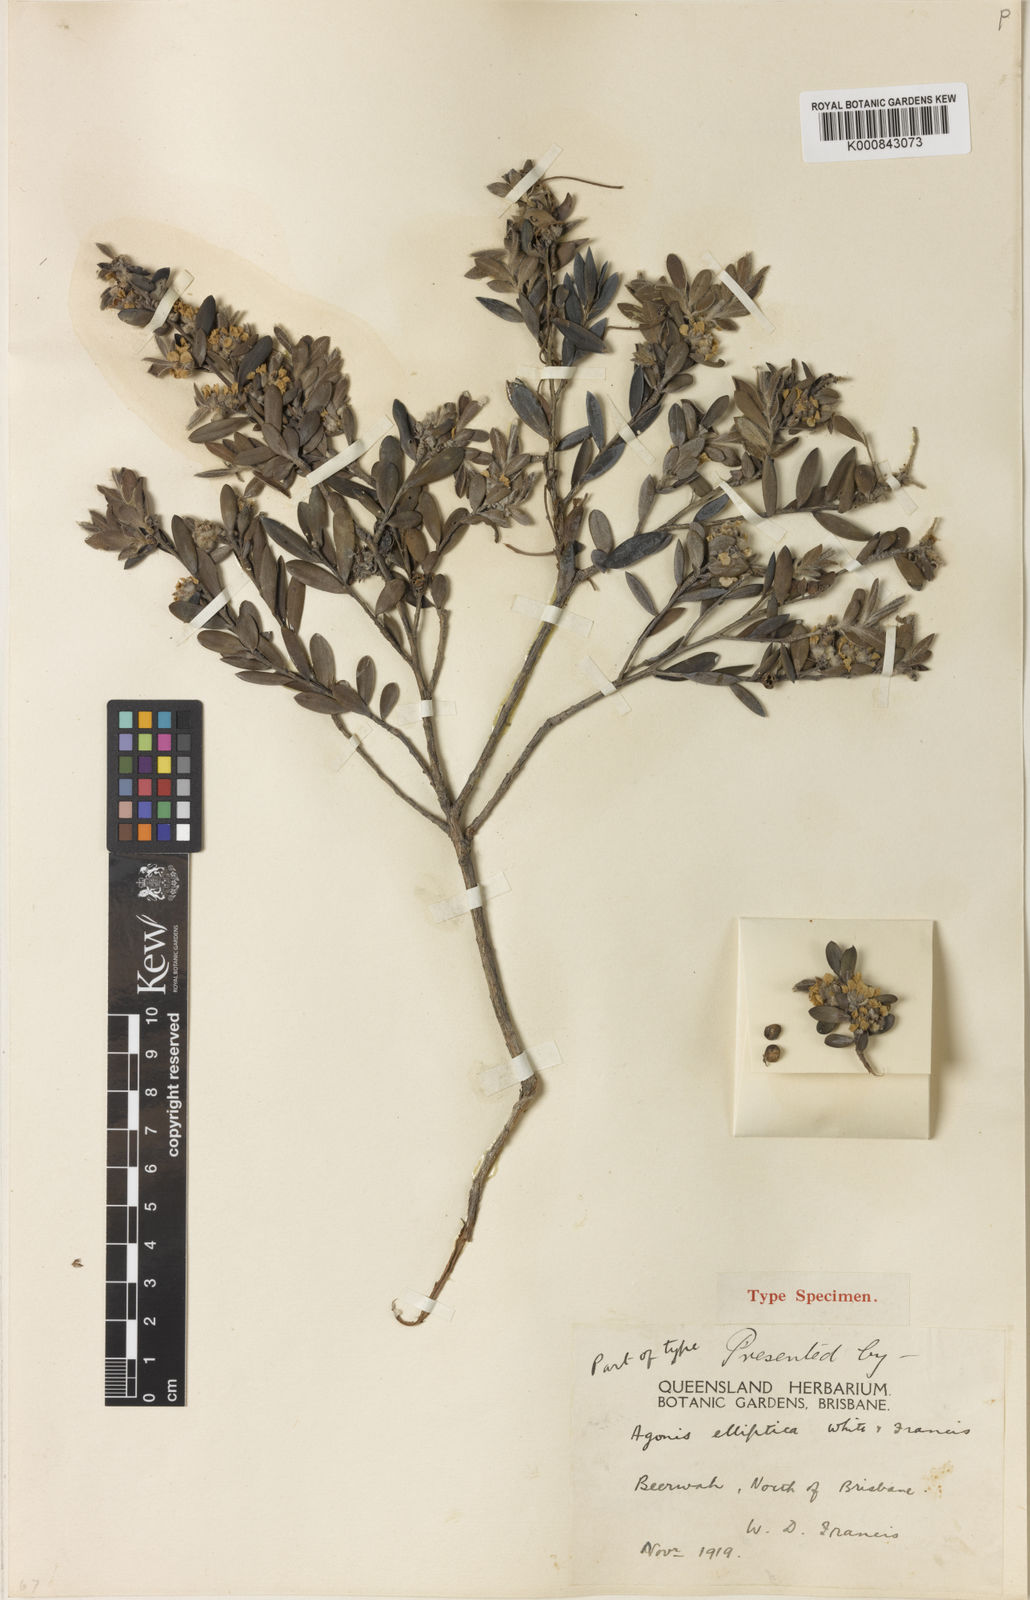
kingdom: Plantae
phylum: Tracheophyta
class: Magnoliopsida
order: Myrtales
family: Myrtaceae
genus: Leptospermum
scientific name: Leptospermum whitei
